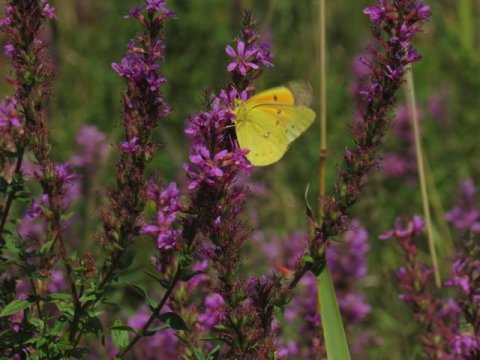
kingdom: Animalia
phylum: Arthropoda
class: Insecta
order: Lepidoptera
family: Pieridae
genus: Colias
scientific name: Colias eurytheme
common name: Orange Sulphur
